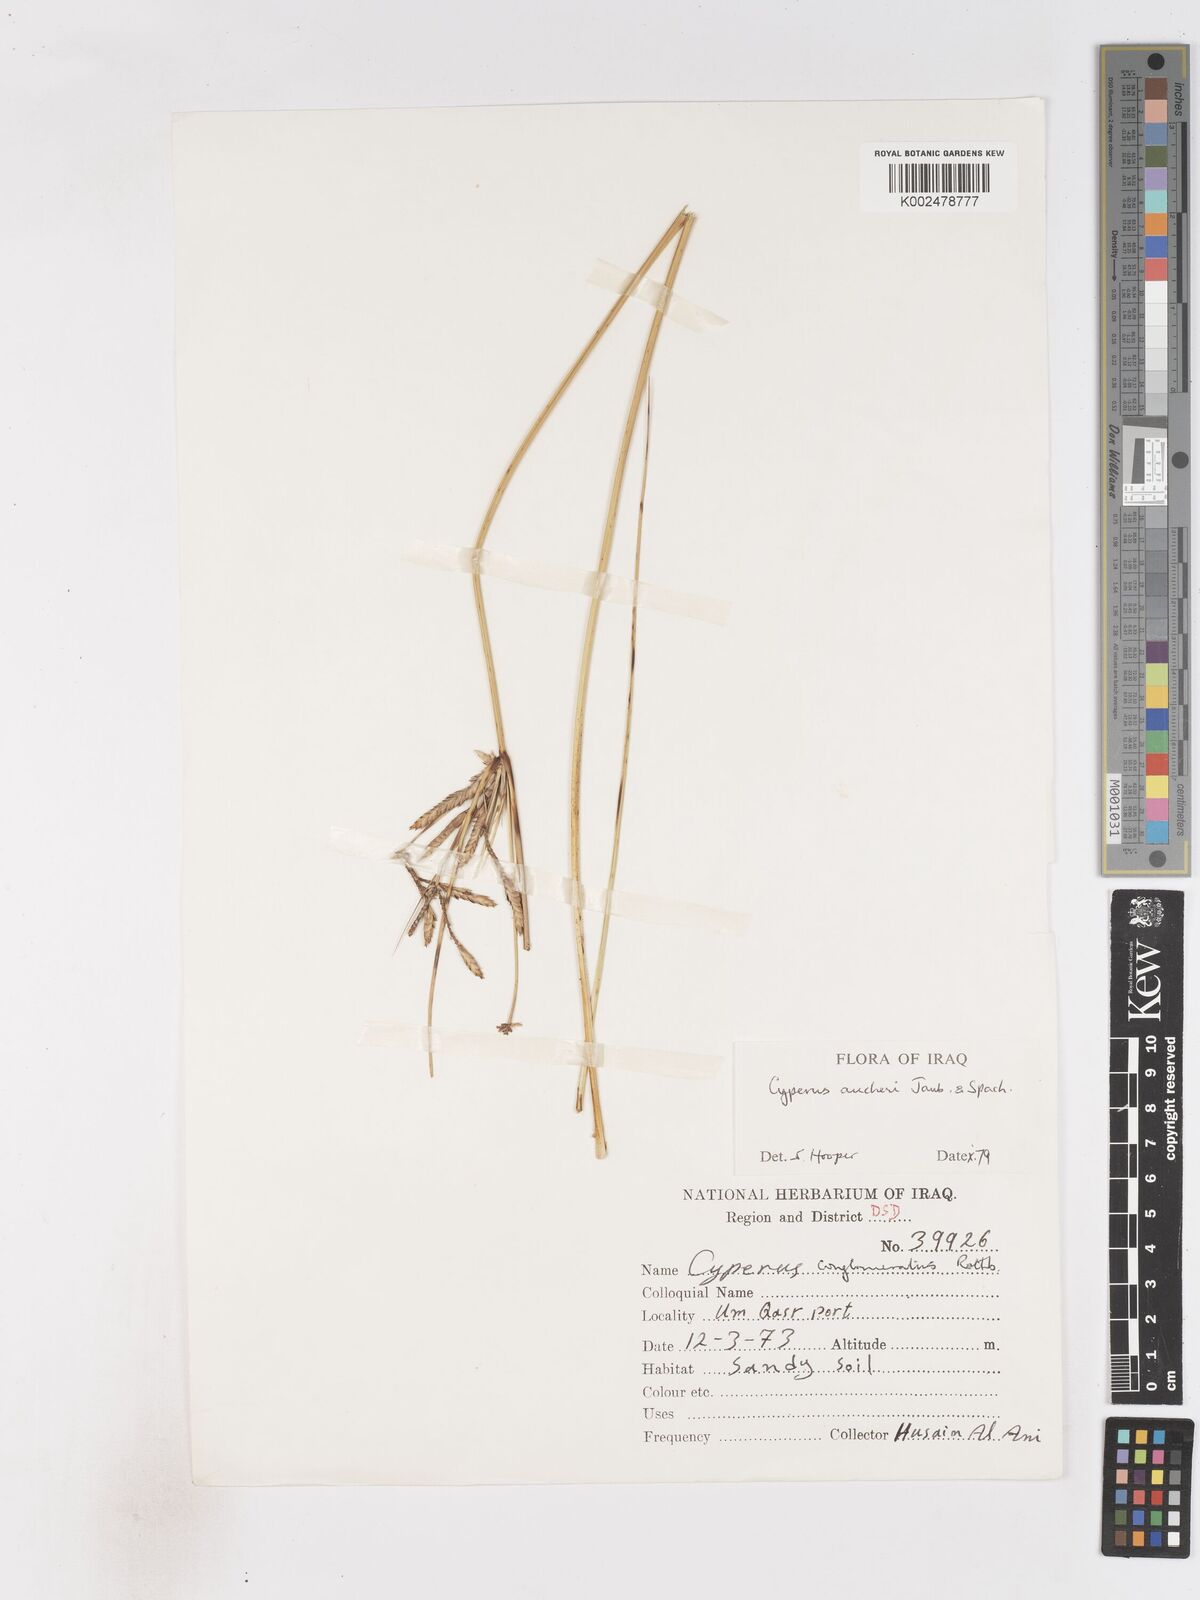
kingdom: Plantae
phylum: Tracheophyta
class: Liliopsida
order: Poales
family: Cyperaceae
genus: Cyperus
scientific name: Cyperus aucheri
